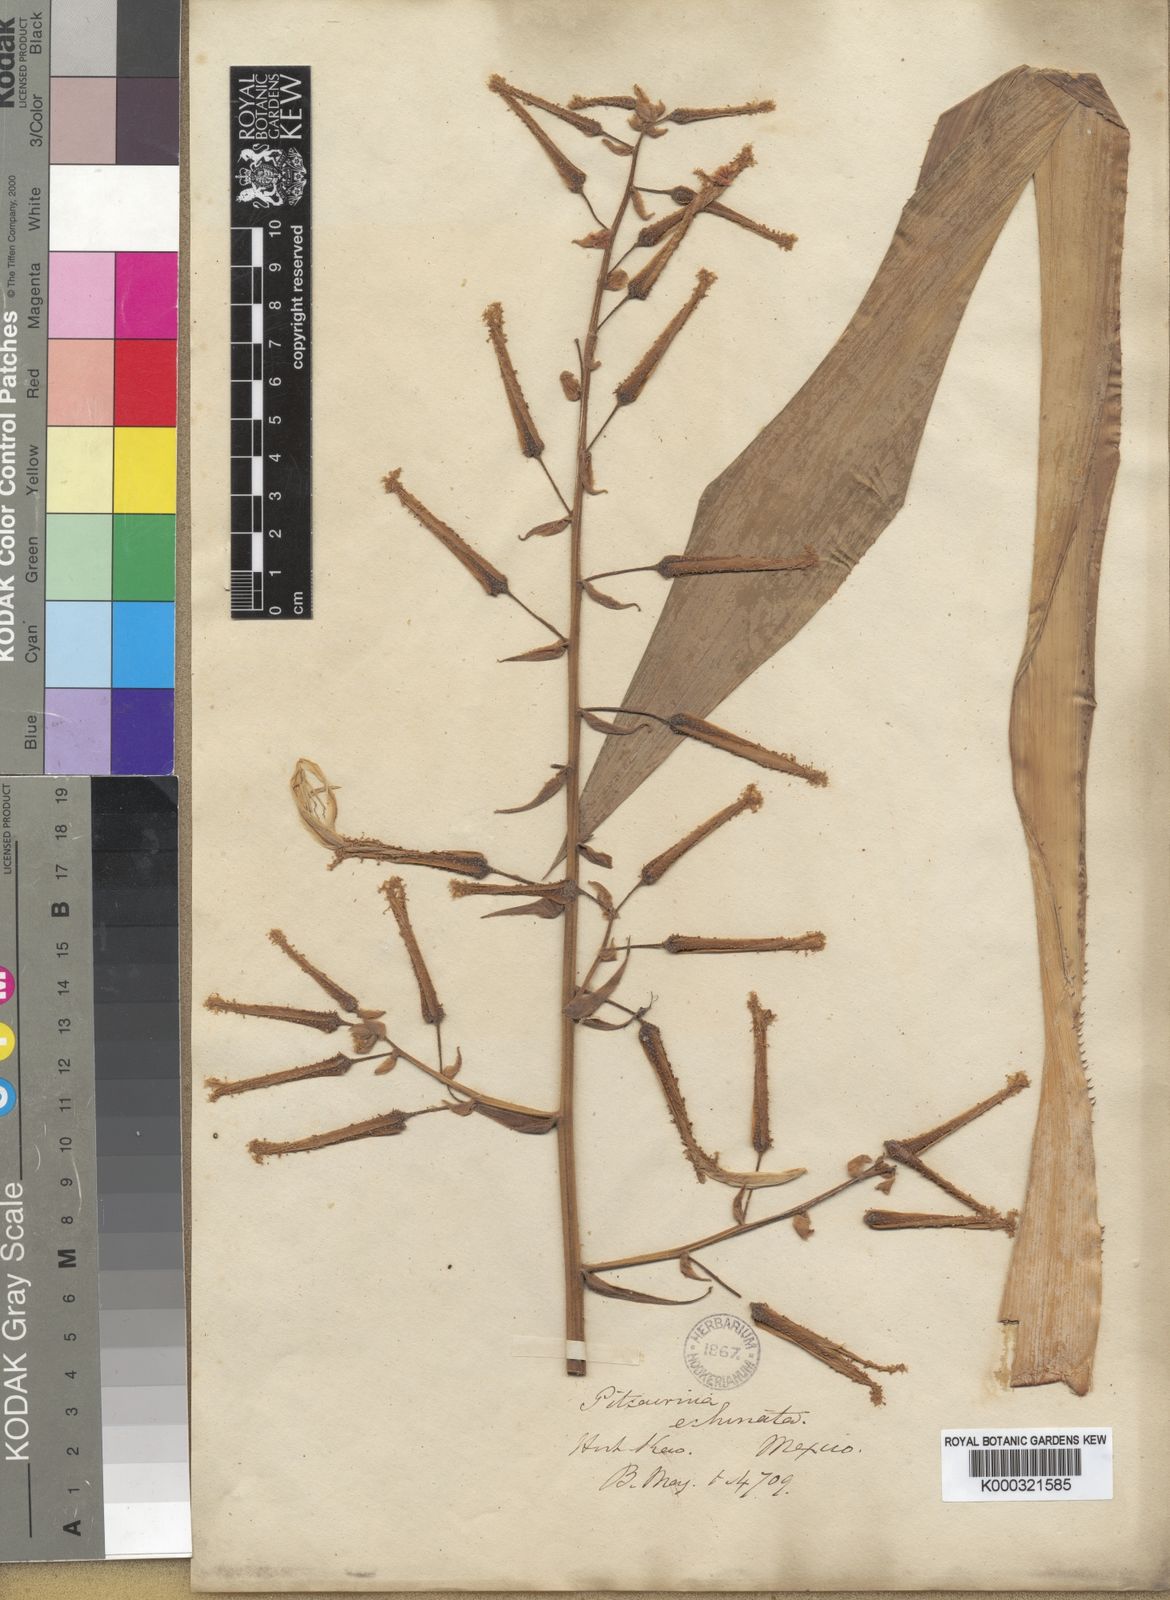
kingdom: Plantae
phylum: Tracheophyta
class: Liliopsida
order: Poales
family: Bromeliaceae
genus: Pitcairnia
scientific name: Pitcairnia echinata
